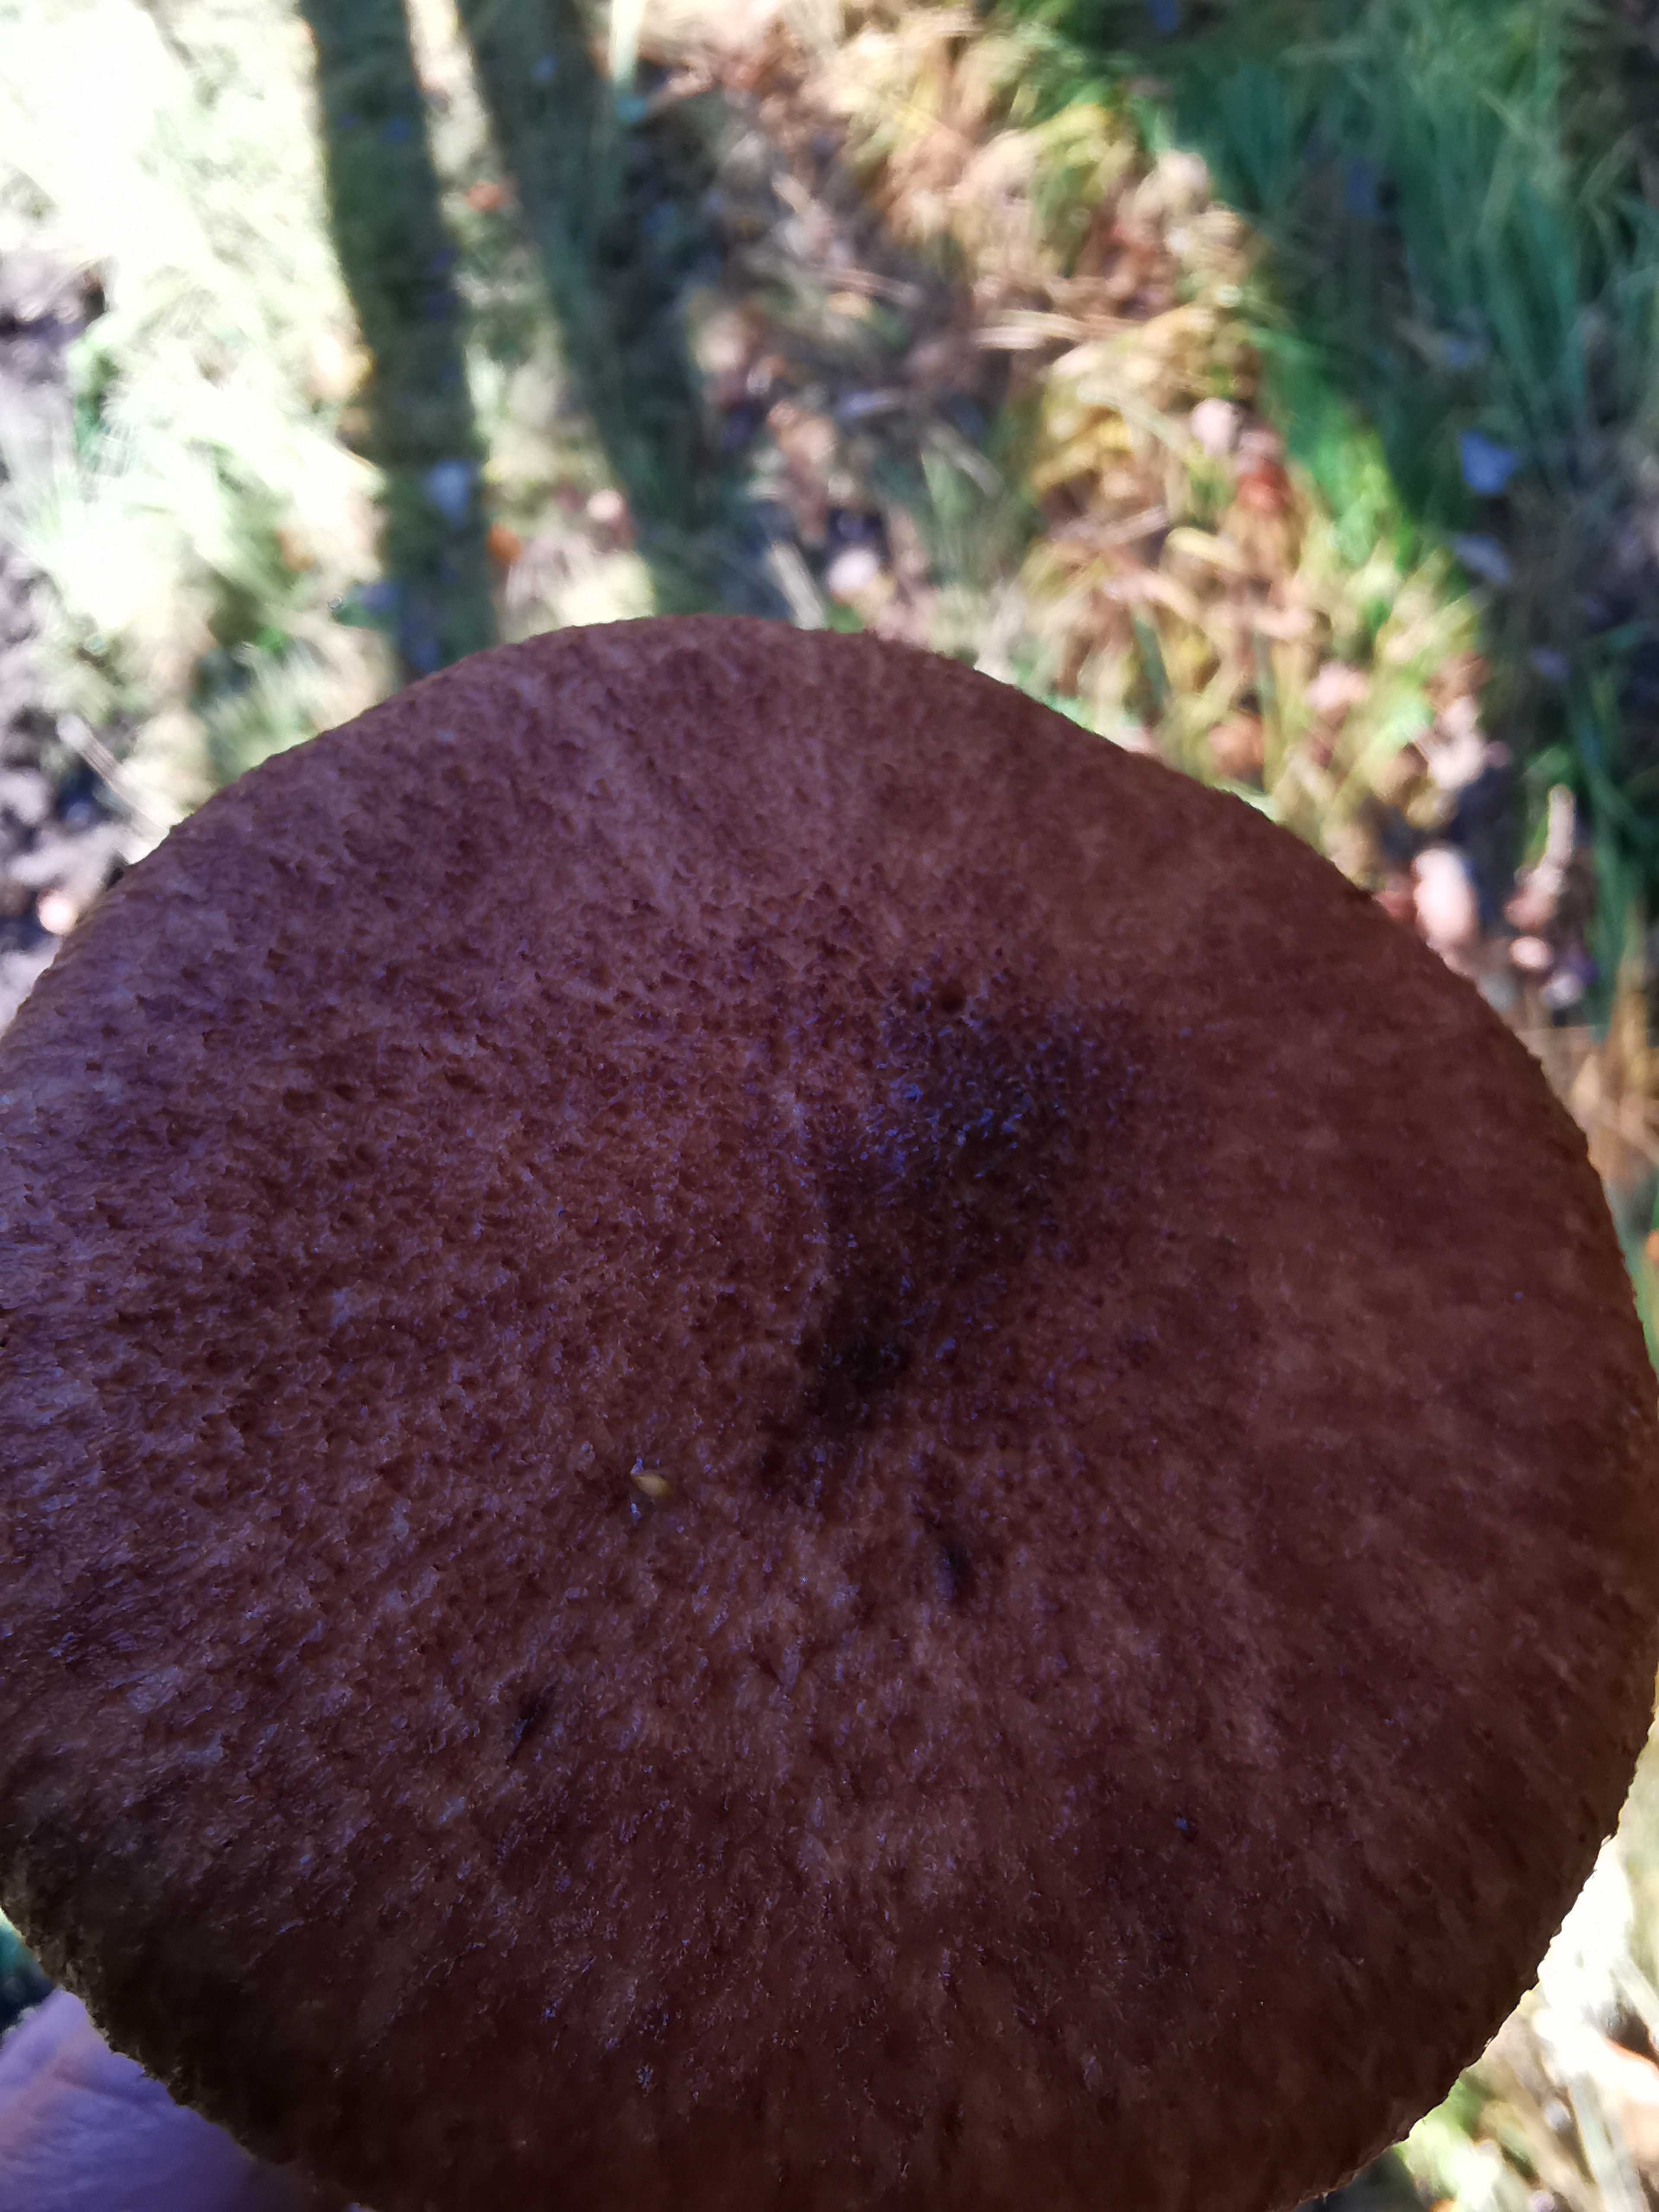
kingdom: Fungi
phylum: Basidiomycota
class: Agaricomycetes
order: Boletales
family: Suillaceae
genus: Suillus
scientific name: Suillus cavipes
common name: hulstokket slimrørhat
